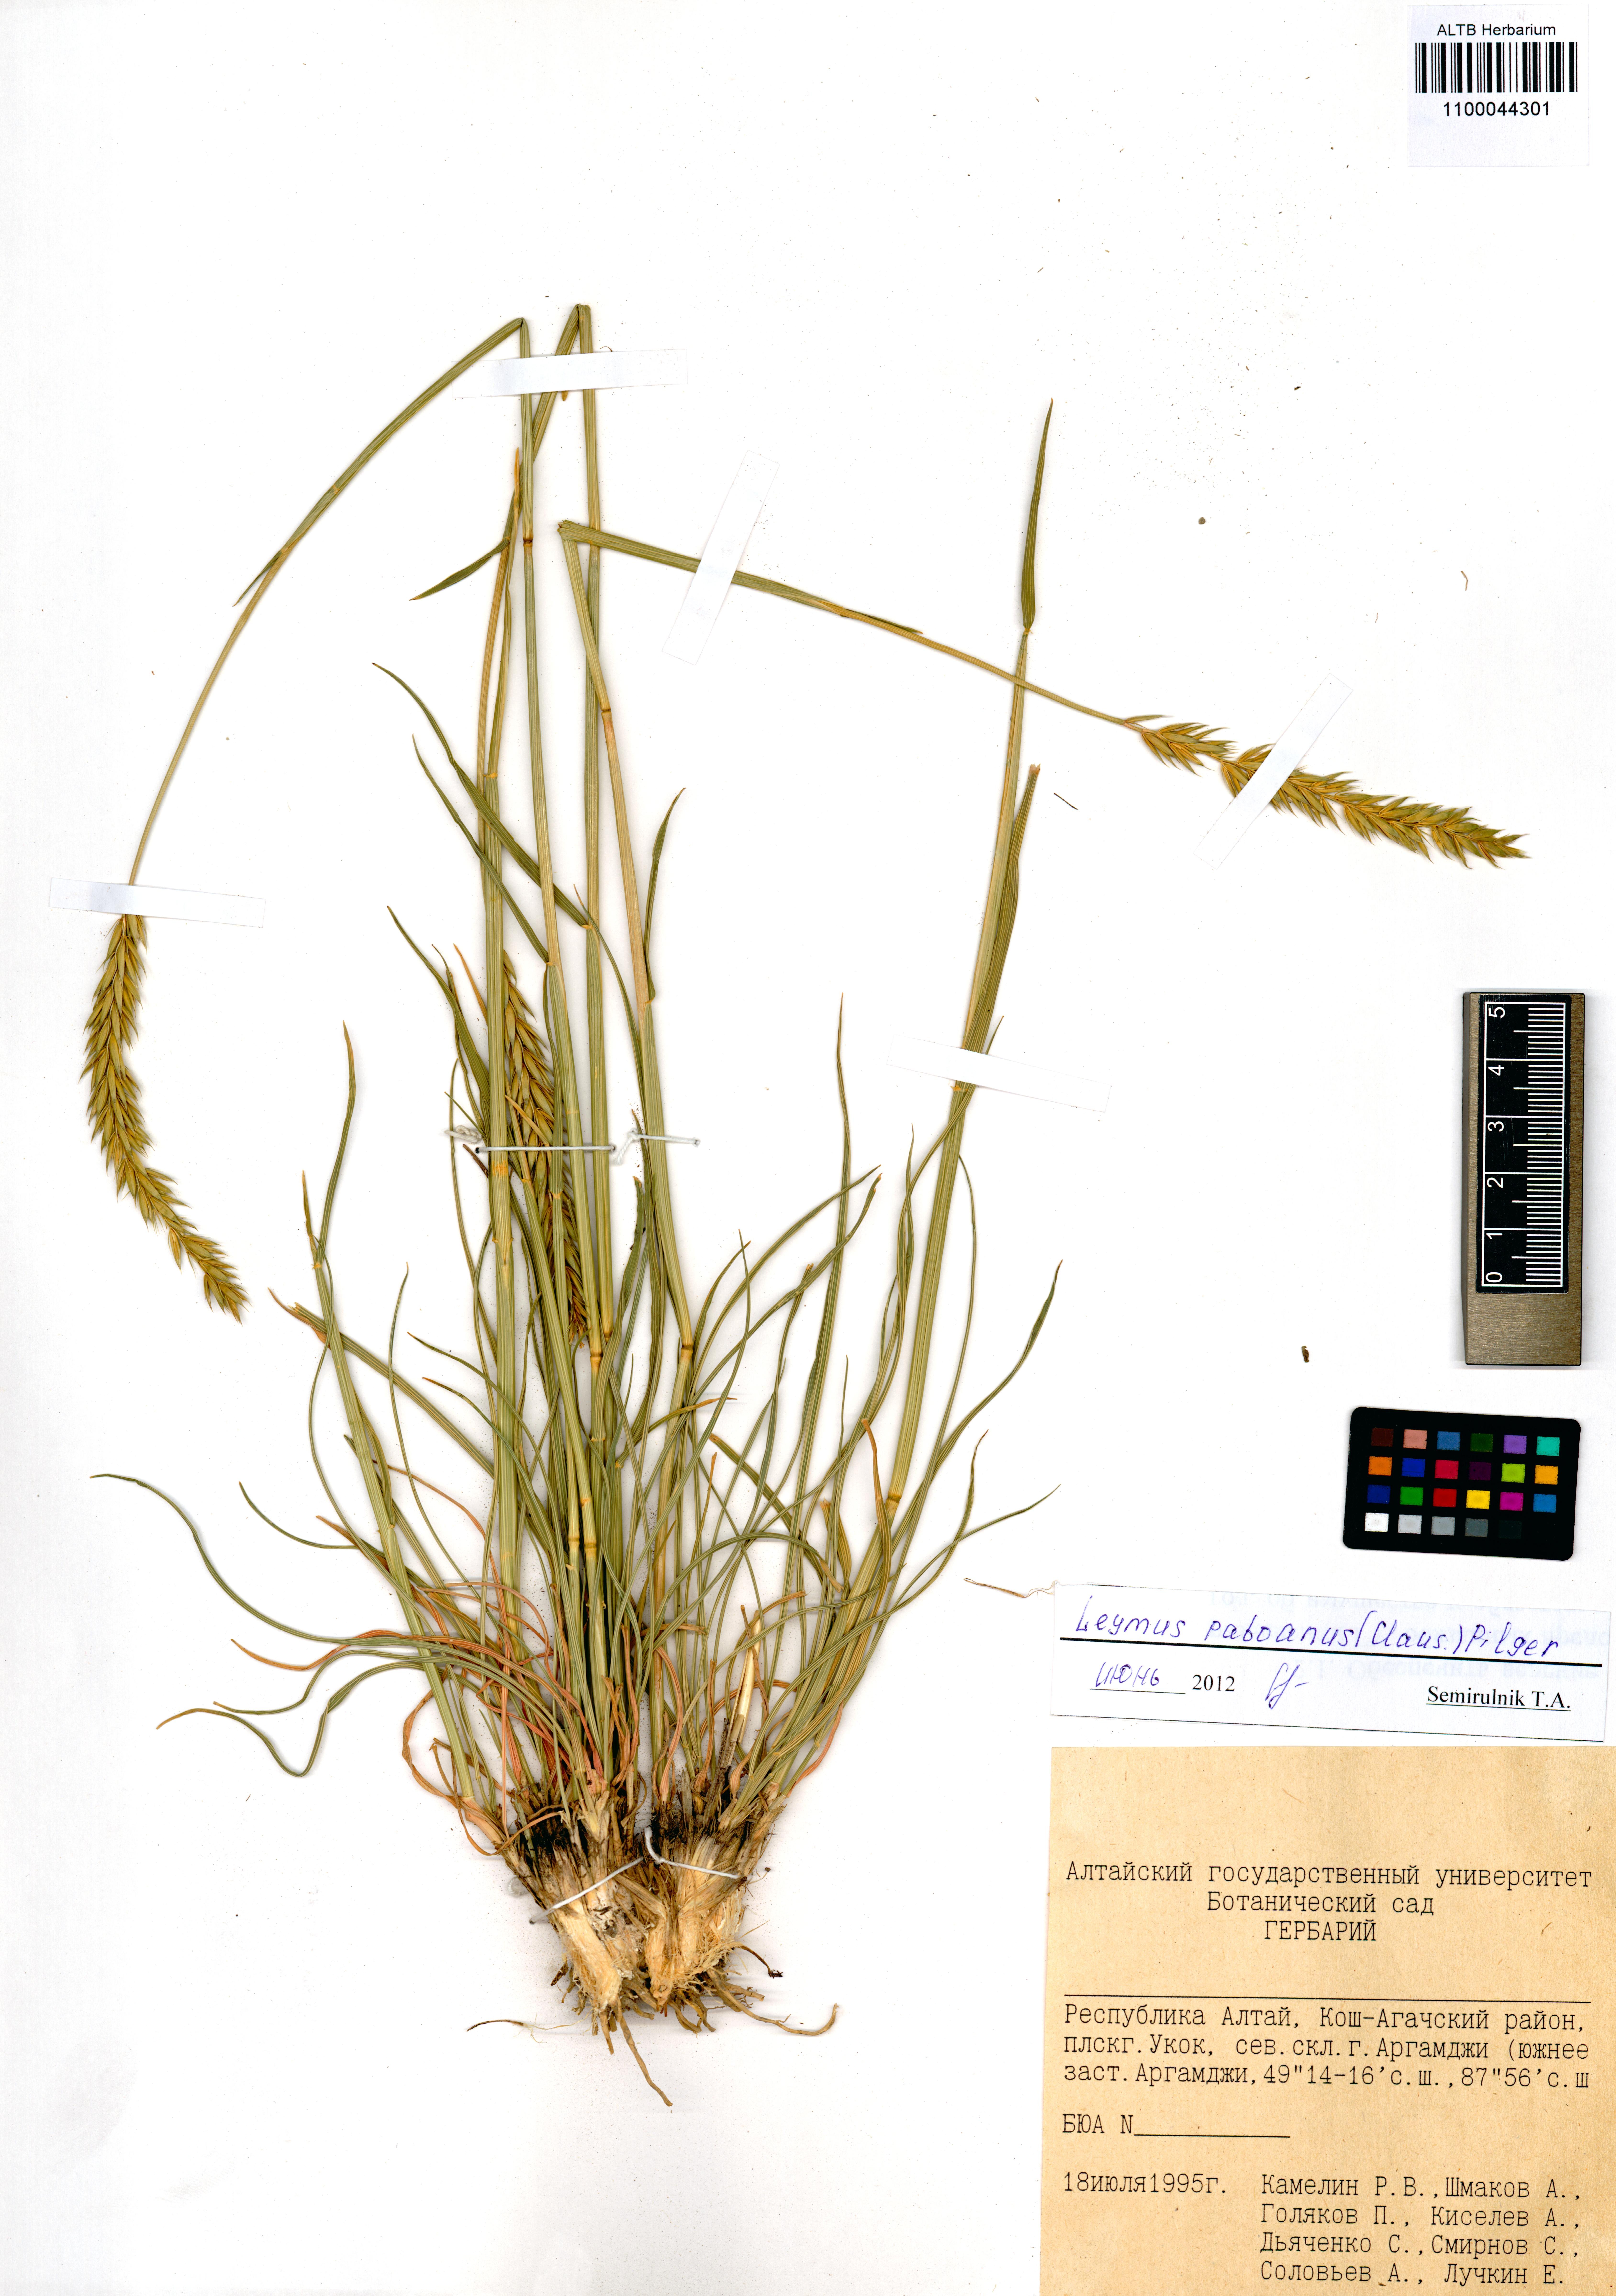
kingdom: Plantae
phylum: Tracheophyta
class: Liliopsida
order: Poales
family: Poaceae
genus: Leymus
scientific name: Leymus paboanus
